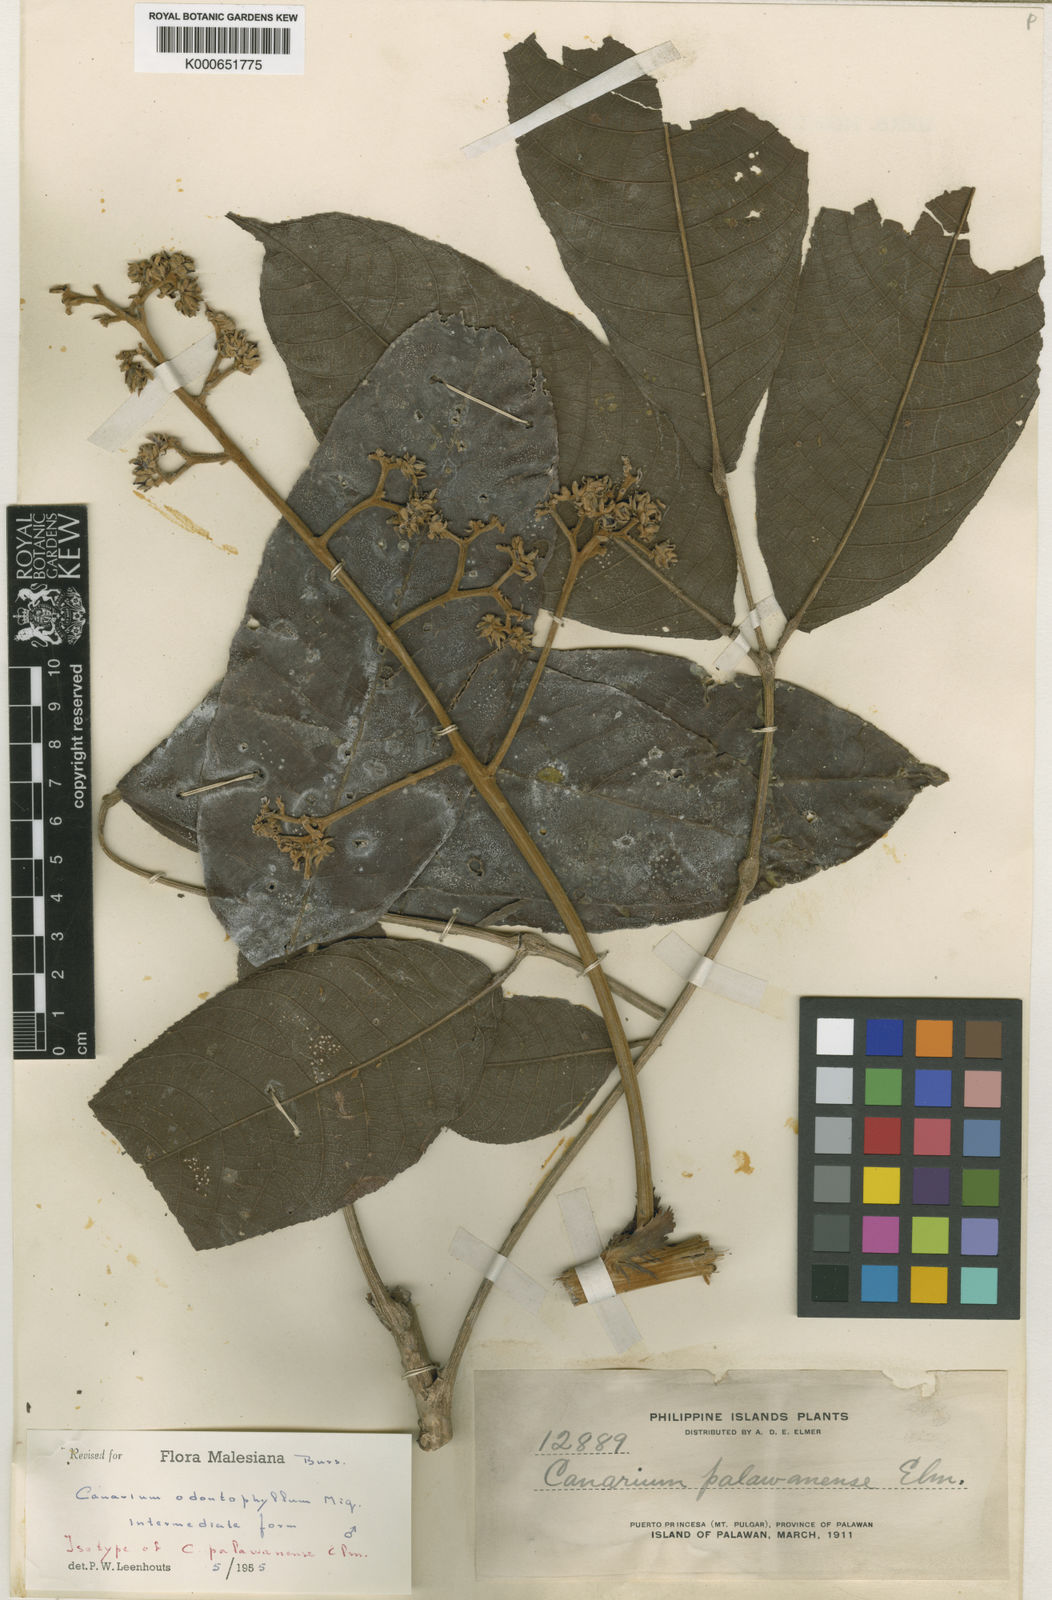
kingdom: Plantae
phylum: Tracheophyta
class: Magnoliopsida
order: Sapindales
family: Burseraceae
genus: Canarium
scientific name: Canarium odontophyllum
